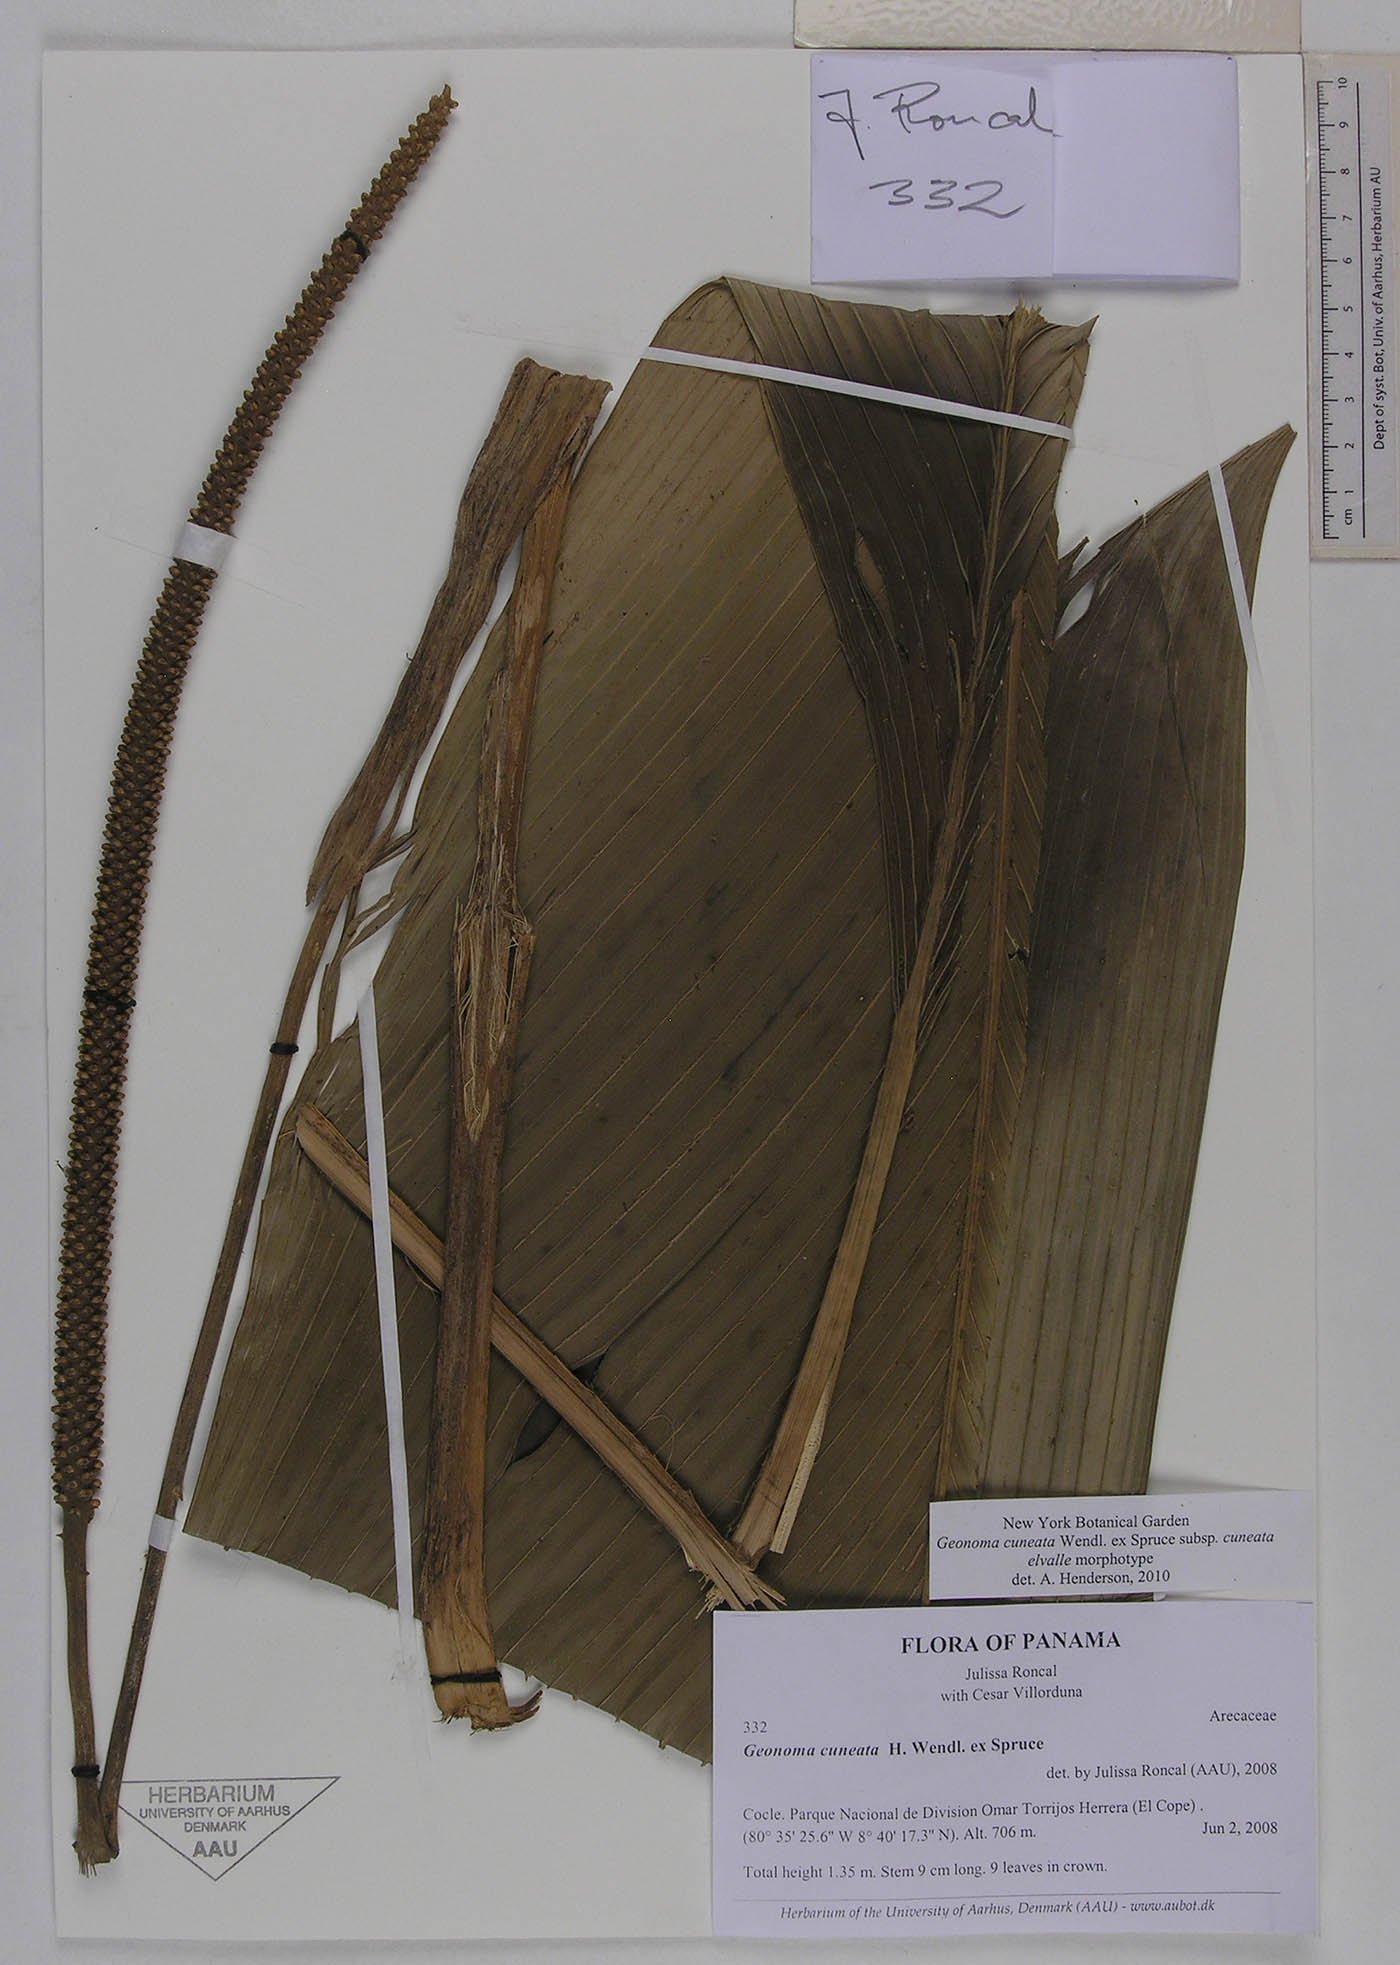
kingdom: Plantae
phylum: Tracheophyta
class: Liliopsida
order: Arecales
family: Arecaceae
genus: Geonoma
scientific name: Geonoma cuneata
